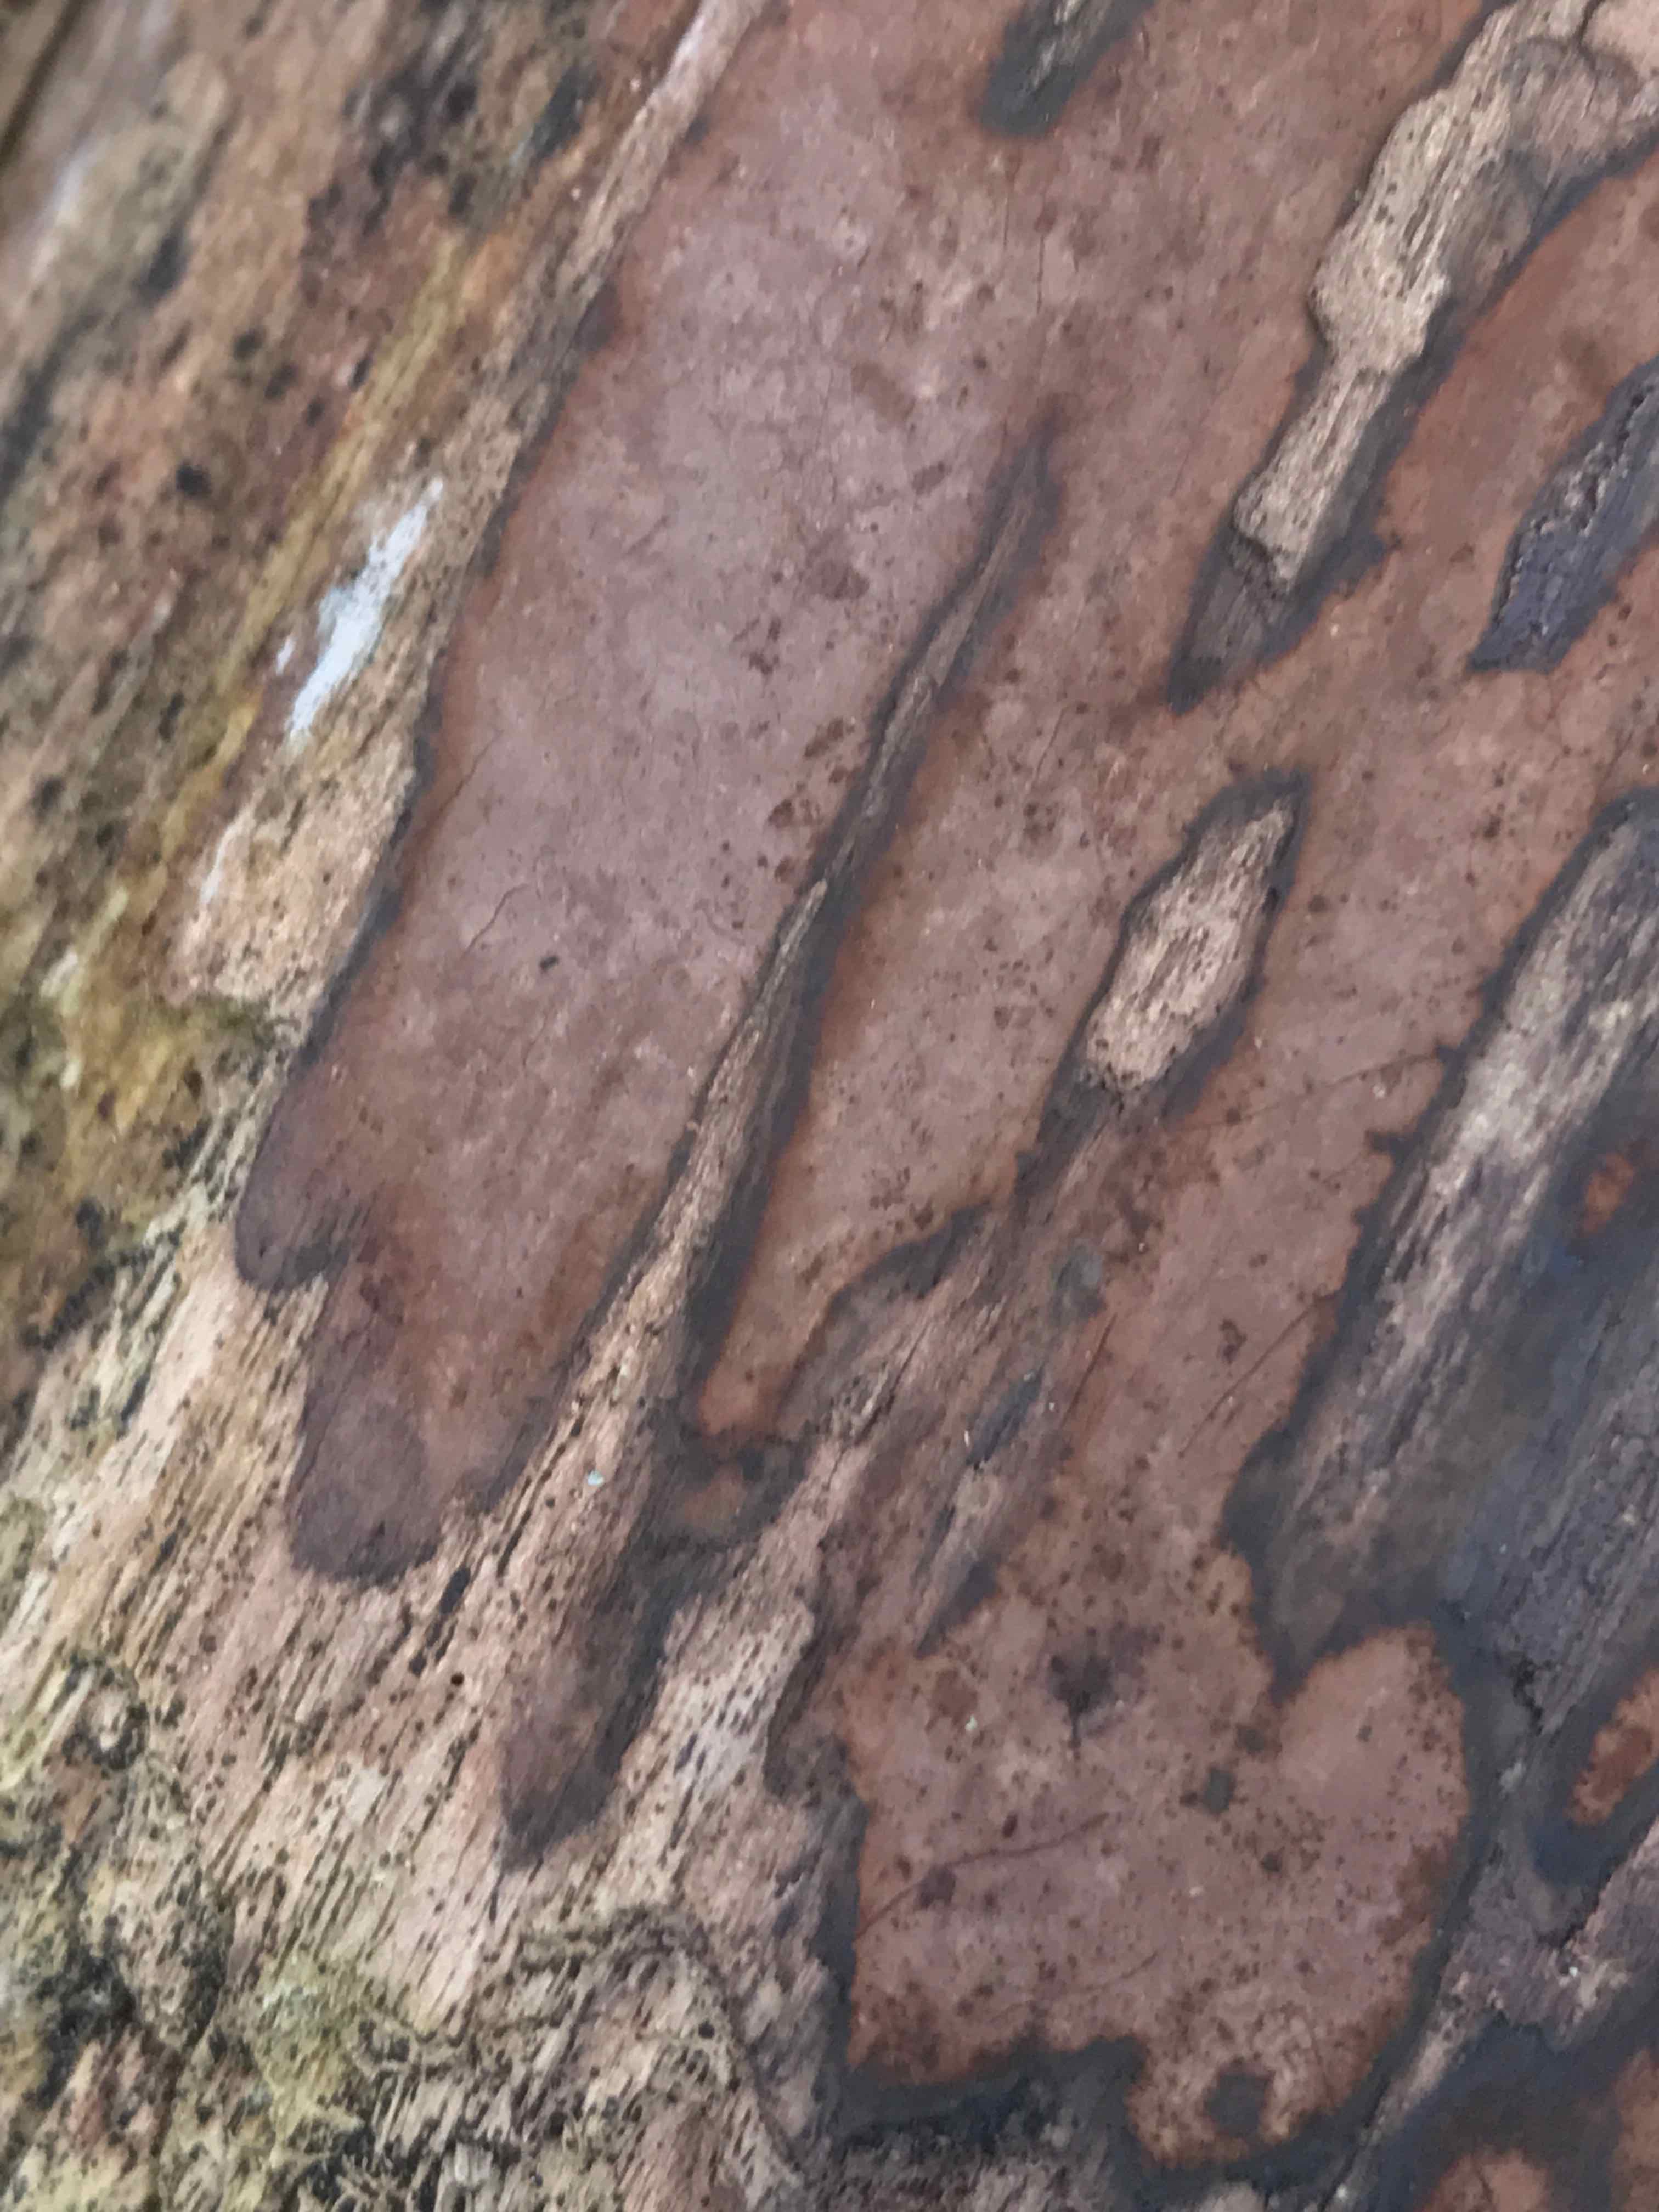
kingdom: Fungi
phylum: Ascomycota
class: Sordariomycetes
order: Xylariales
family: Hypoxylaceae
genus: Hypoxylon
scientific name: Hypoxylon petriniae
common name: nedsænket kulbær
